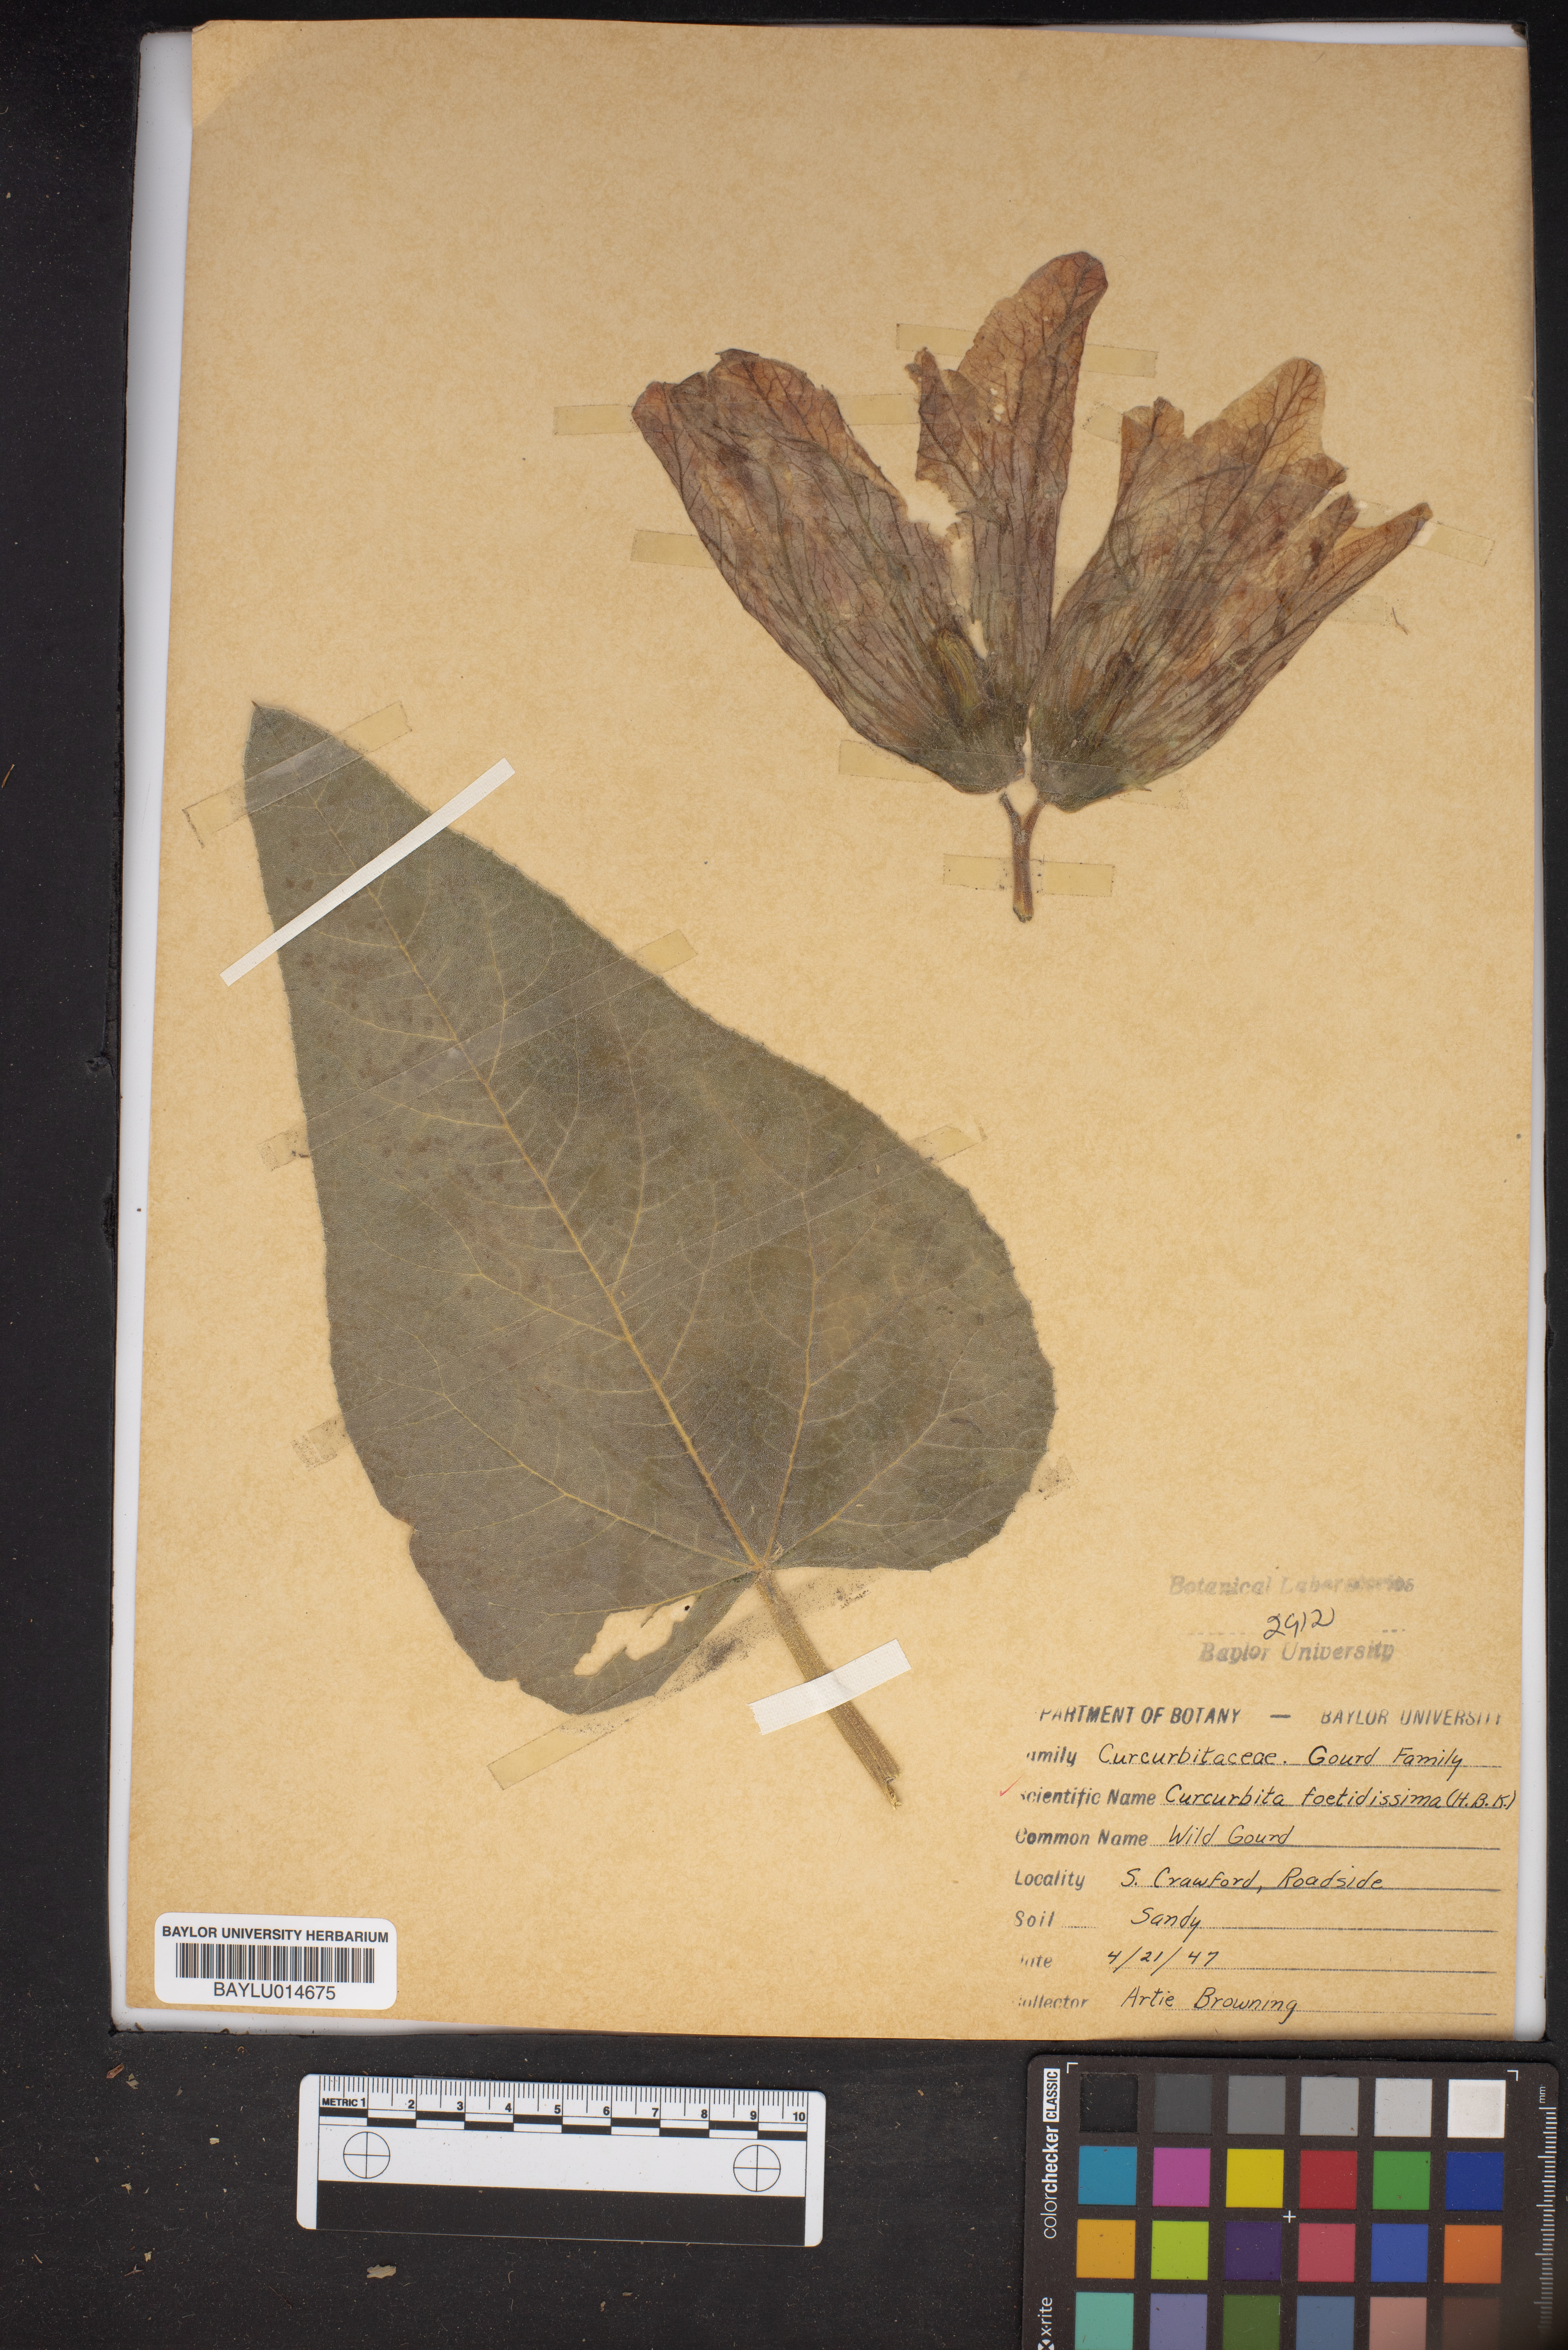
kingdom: Plantae
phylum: Tracheophyta
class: Magnoliopsida
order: Cucurbitales
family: Cucurbitaceae
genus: Cucurbita
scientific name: Cucurbita foetidissima
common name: Buffalo gourd
